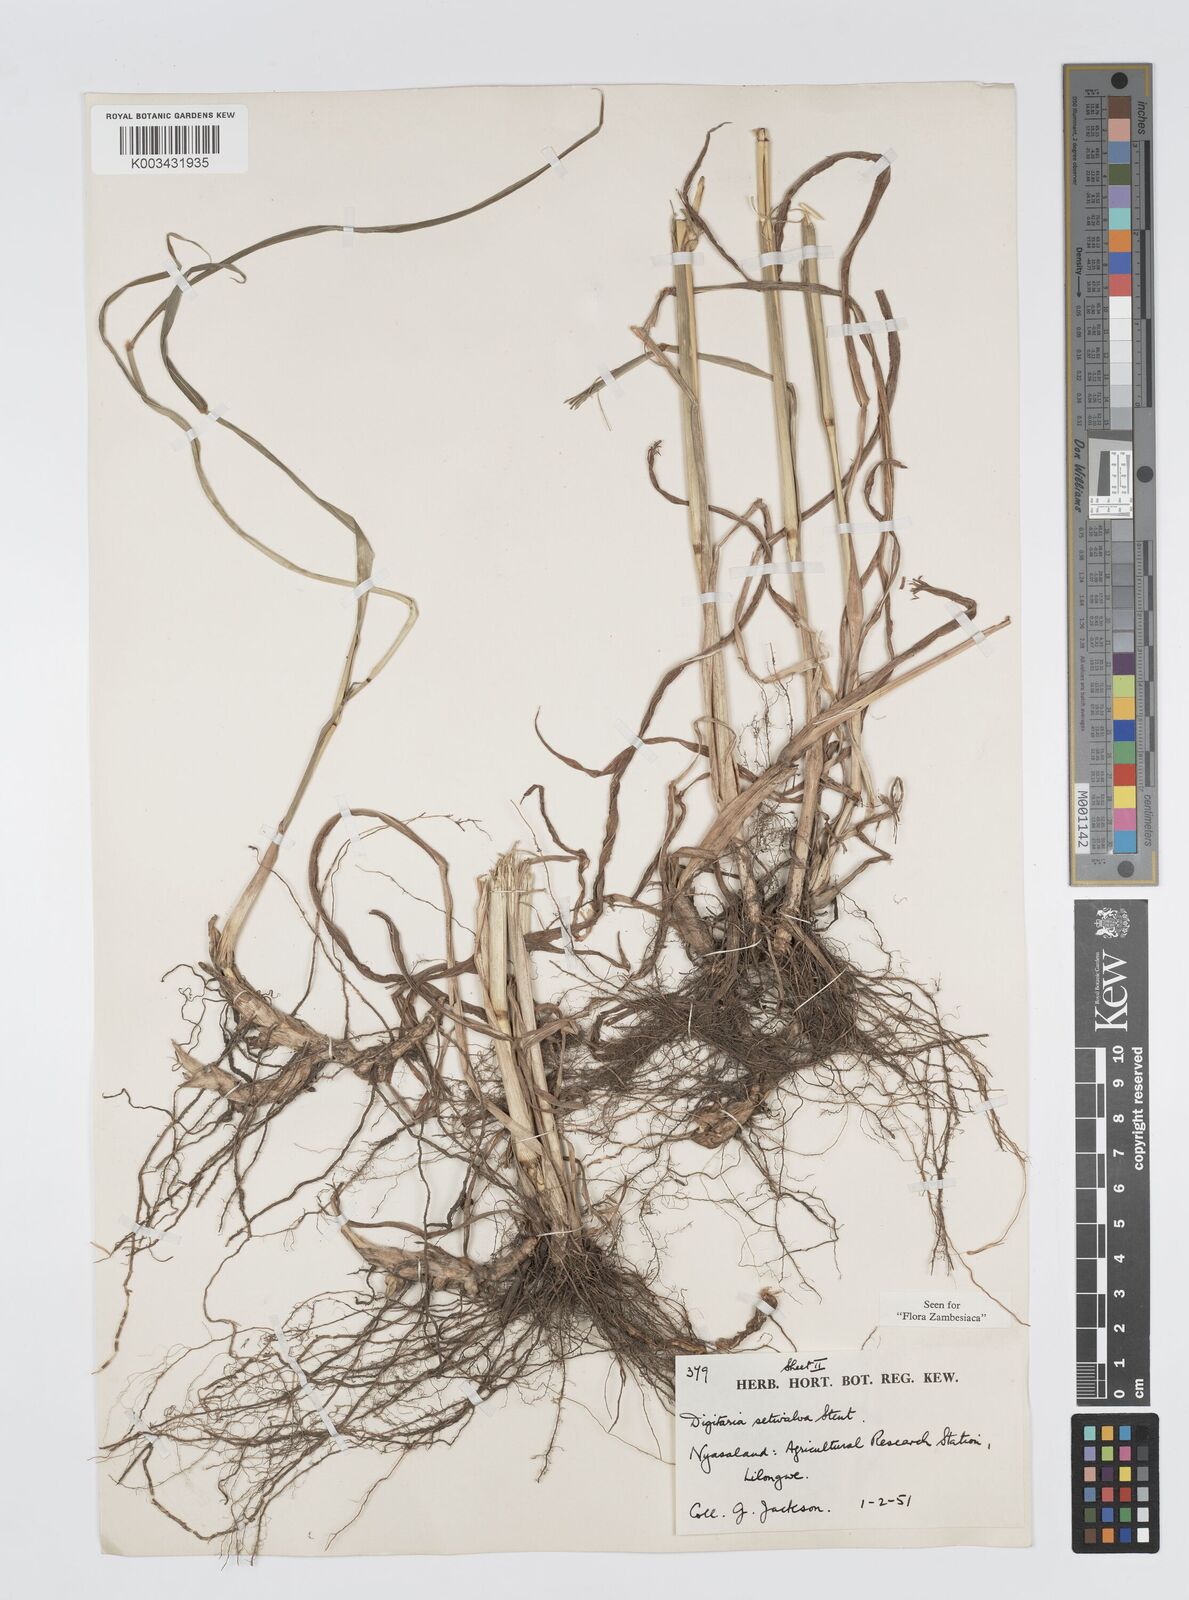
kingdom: Plantae
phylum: Tracheophyta
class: Liliopsida
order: Poales
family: Poaceae
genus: Digitaria
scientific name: Digitaria milanjiana
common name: Madagascar crabgrass
